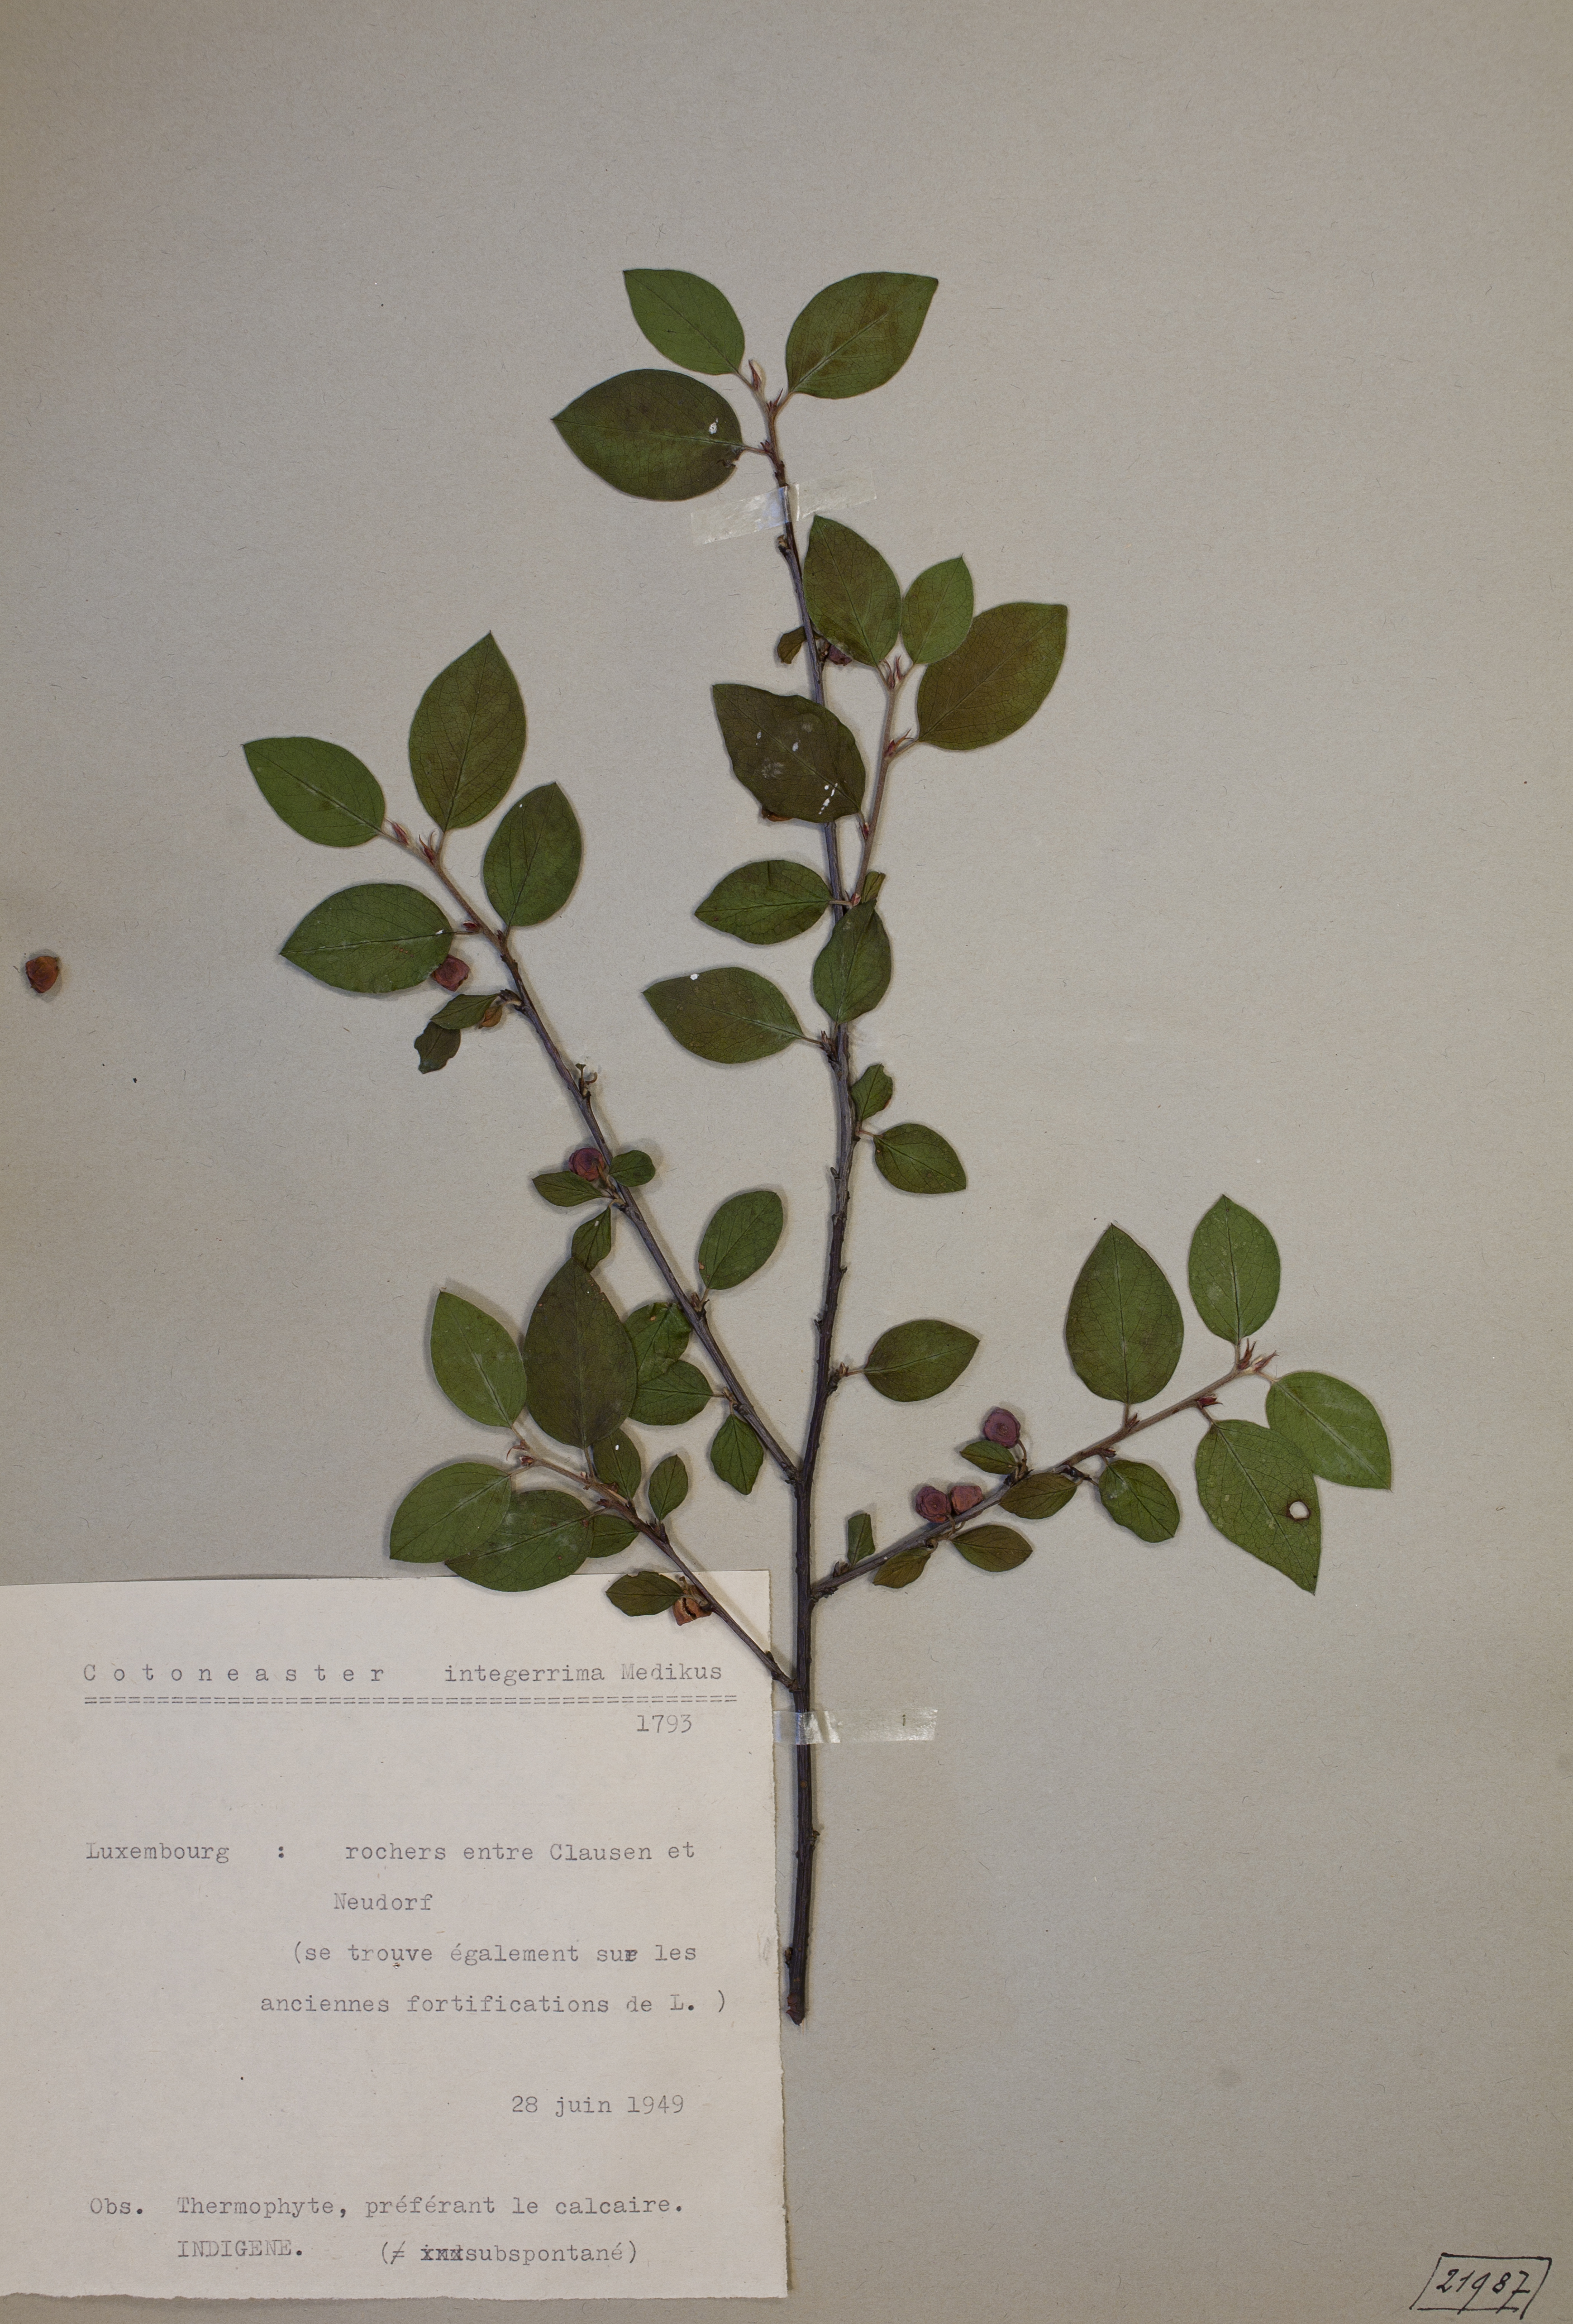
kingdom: Plantae
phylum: Tracheophyta
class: Magnoliopsida
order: Rosales
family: Rosaceae
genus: Cotoneaster
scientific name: Cotoneaster integerrimus
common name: Wild cotoneaster
